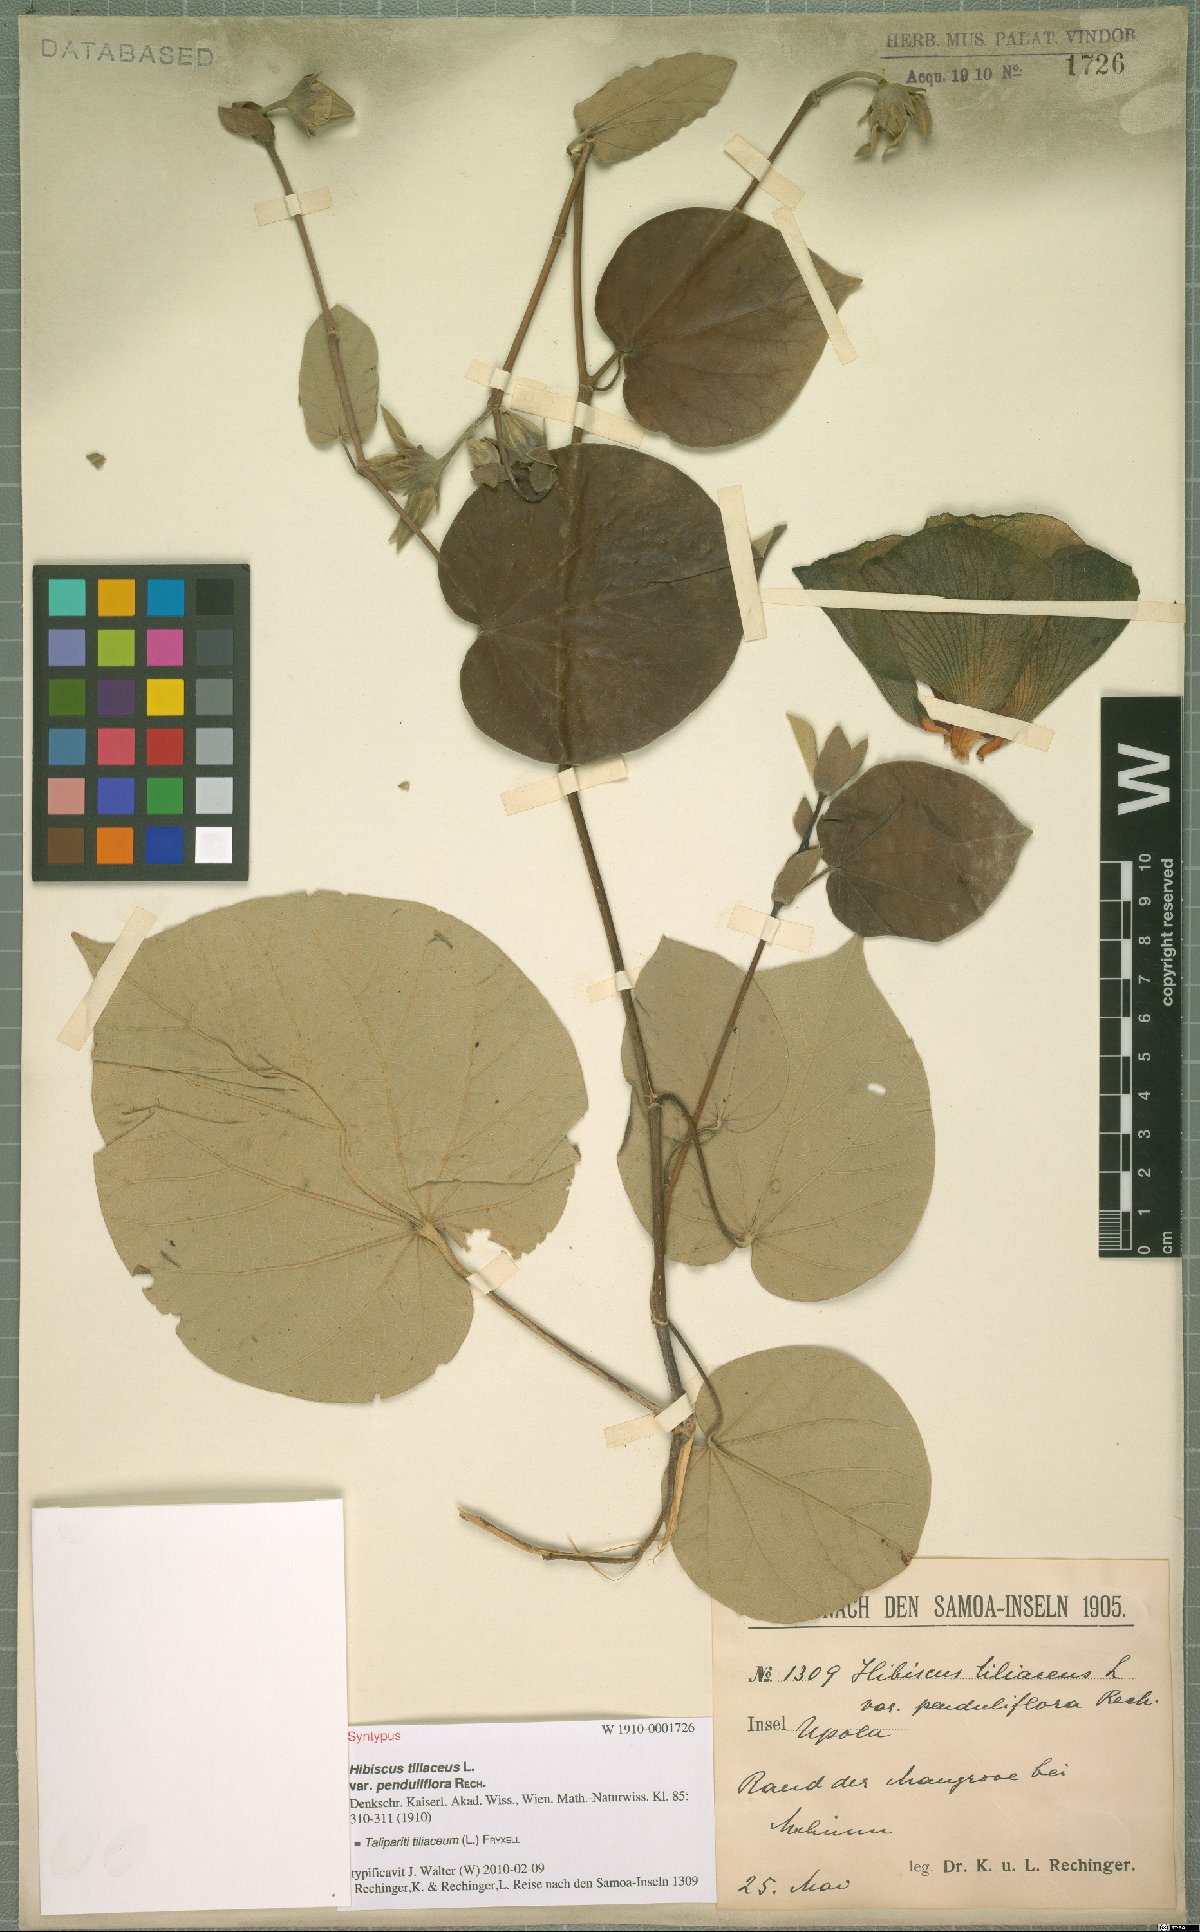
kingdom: Plantae
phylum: Tracheophyta
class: Magnoliopsida
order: Malvales
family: Malvaceae
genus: Talipariti
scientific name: Talipariti tiliaceum
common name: Sea hibiscus
